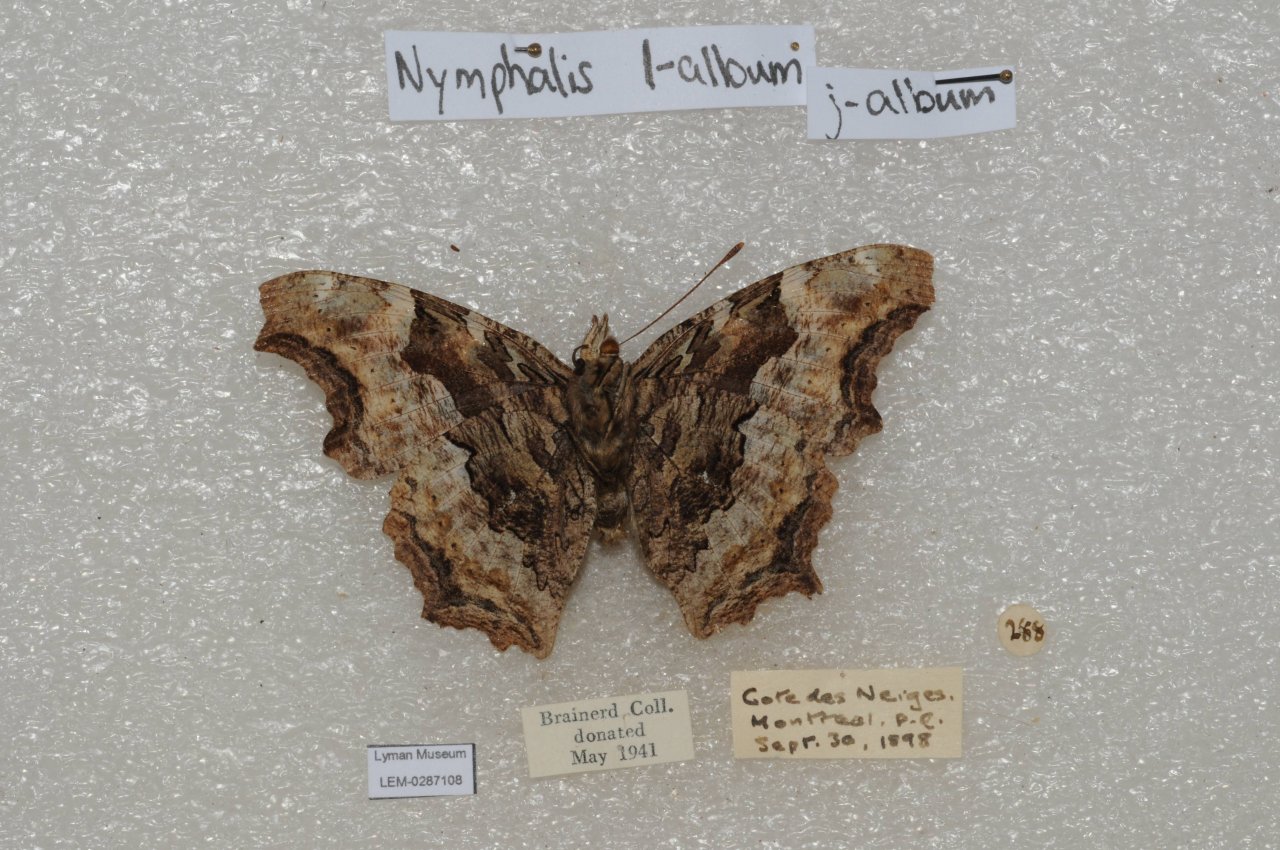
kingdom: Animalia
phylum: Arthropoda
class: Insecta
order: Lepidoptera
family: Nymphalidae
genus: Polygonia
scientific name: Polygonia vaualbum
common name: Compton Tortoiseshell
